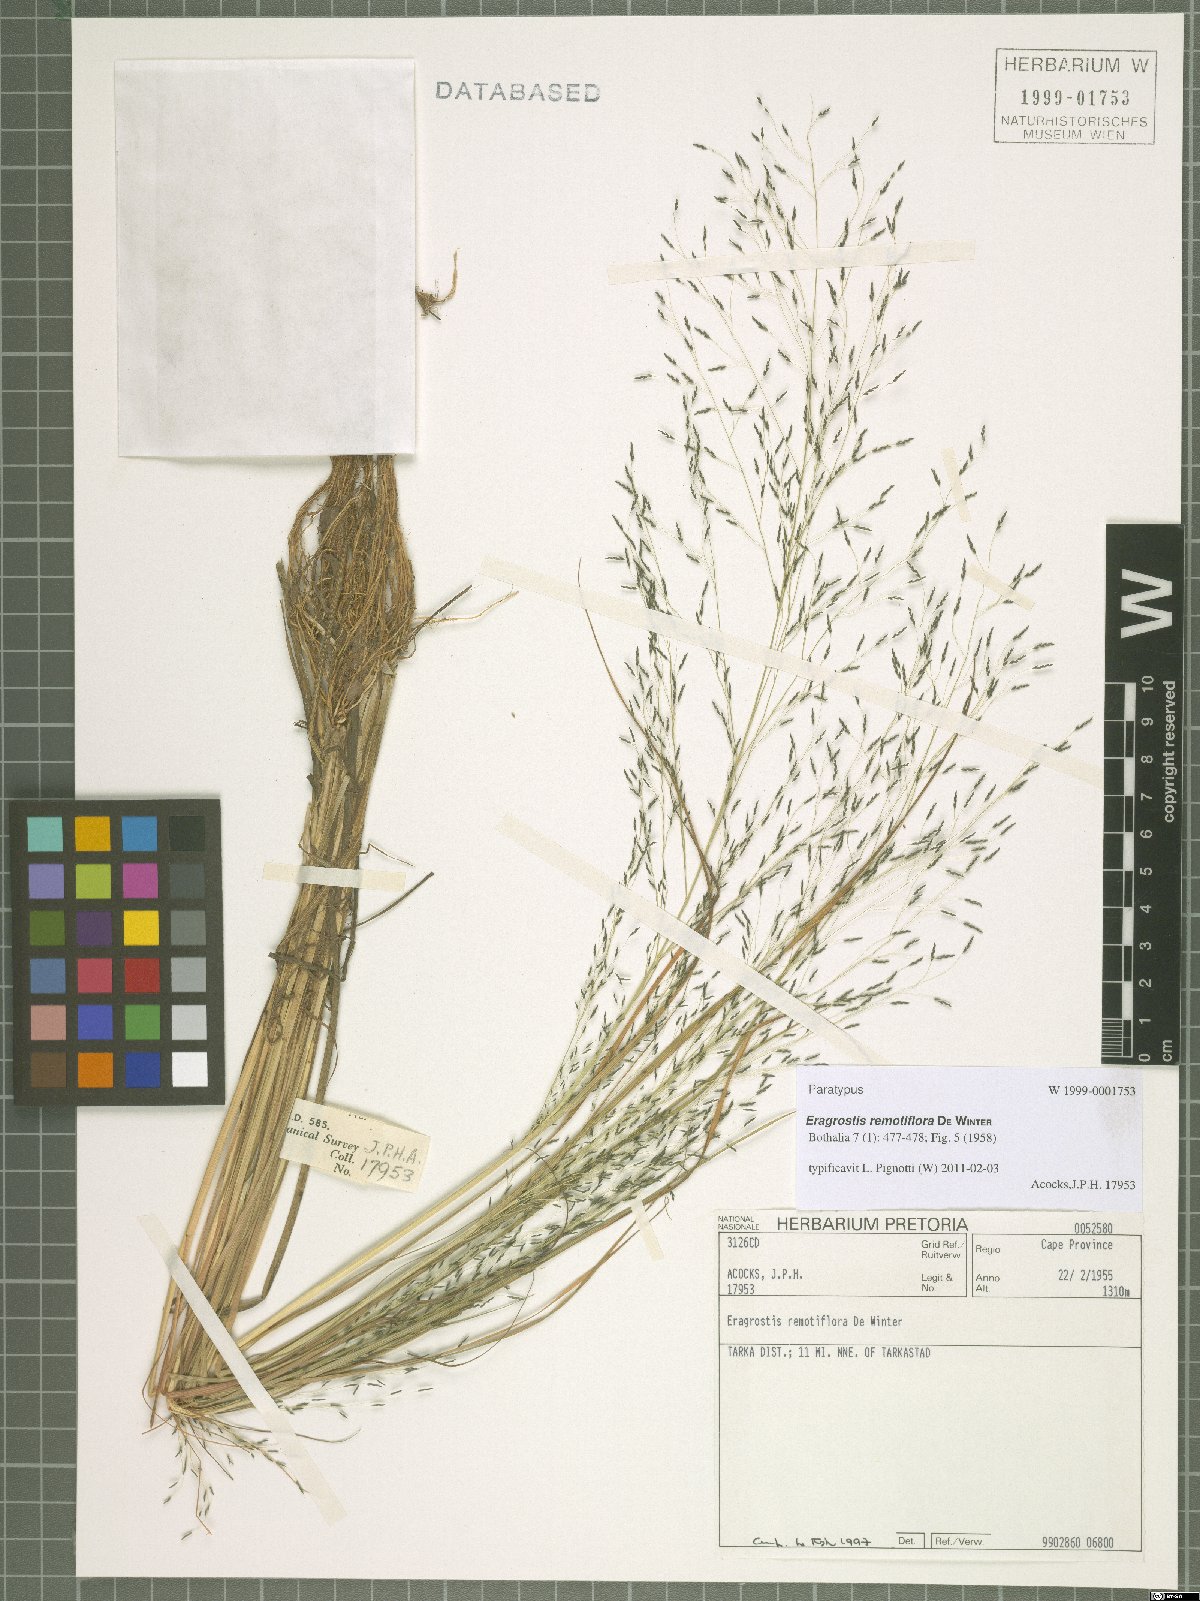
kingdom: Plantae
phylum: Tracheophyta
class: Liliopsida
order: Poales
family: Poaceae
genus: Eragrostis
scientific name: Eragrostis remotiflora
